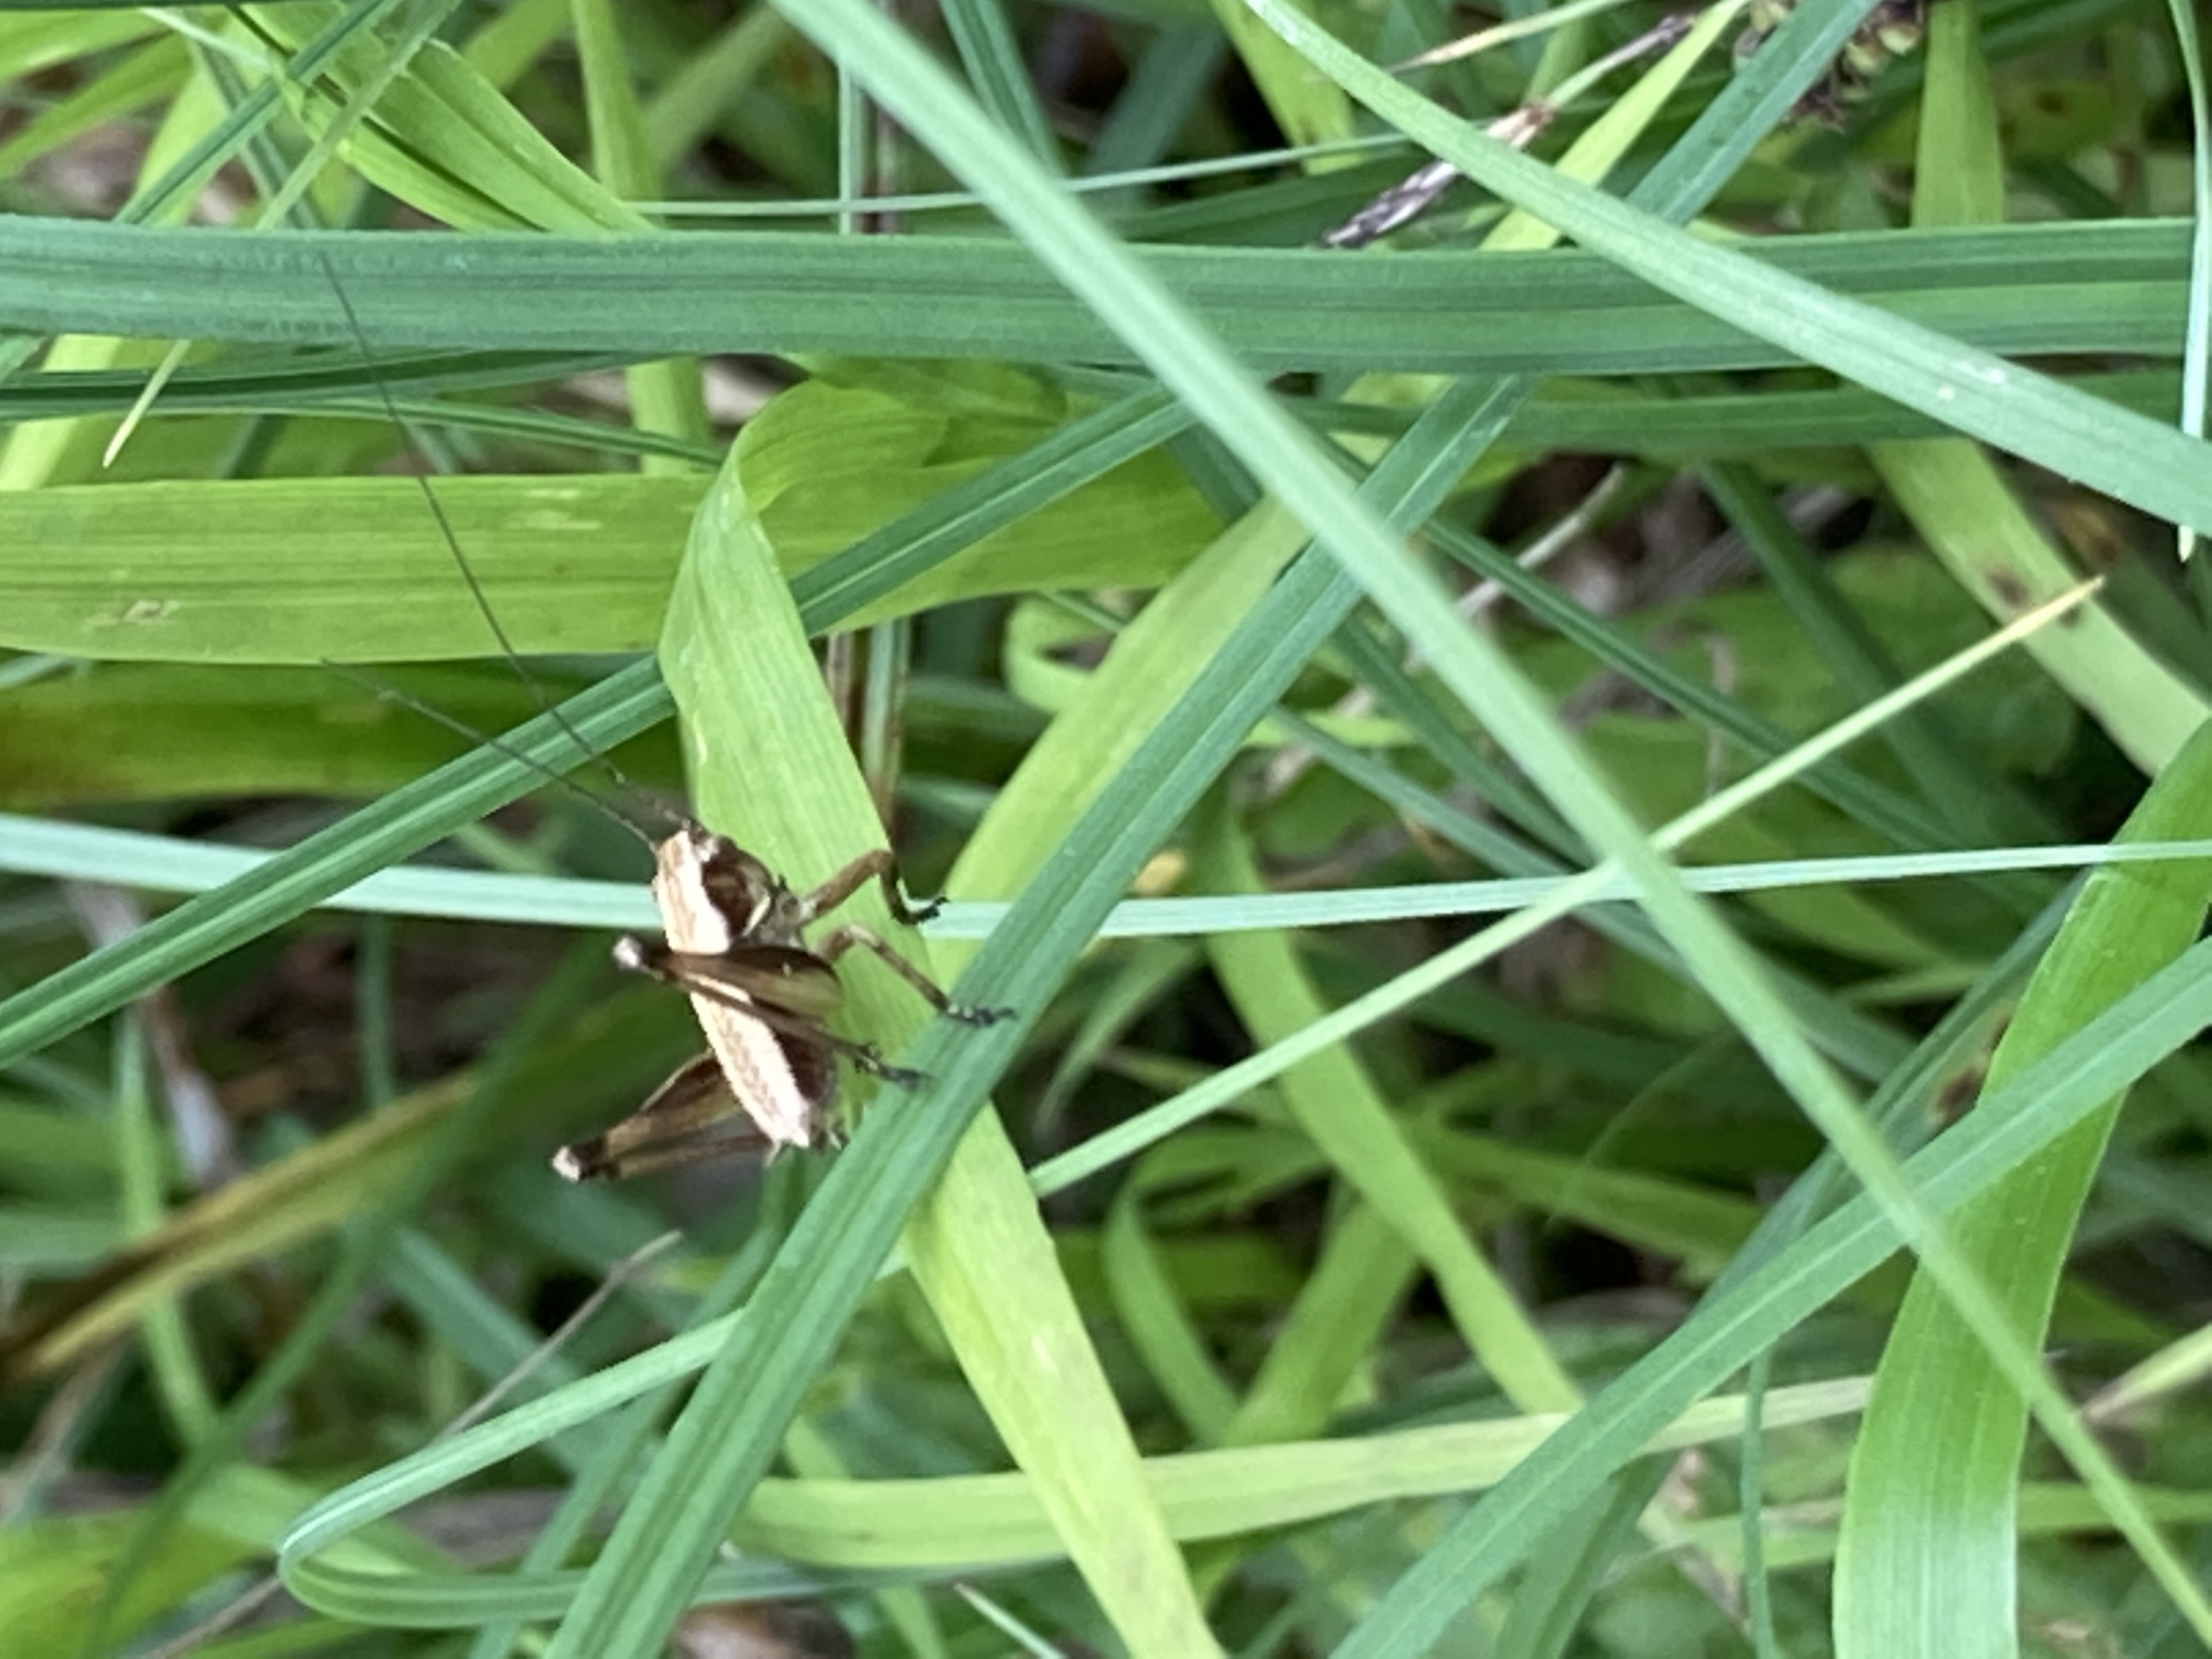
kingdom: Animalia
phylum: Arthropoda
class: Insecta
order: Orthoptera
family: Tettigoniidae
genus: Pholidoptera
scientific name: Pholidoptera griseoaptera
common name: Buskgræshoppe
